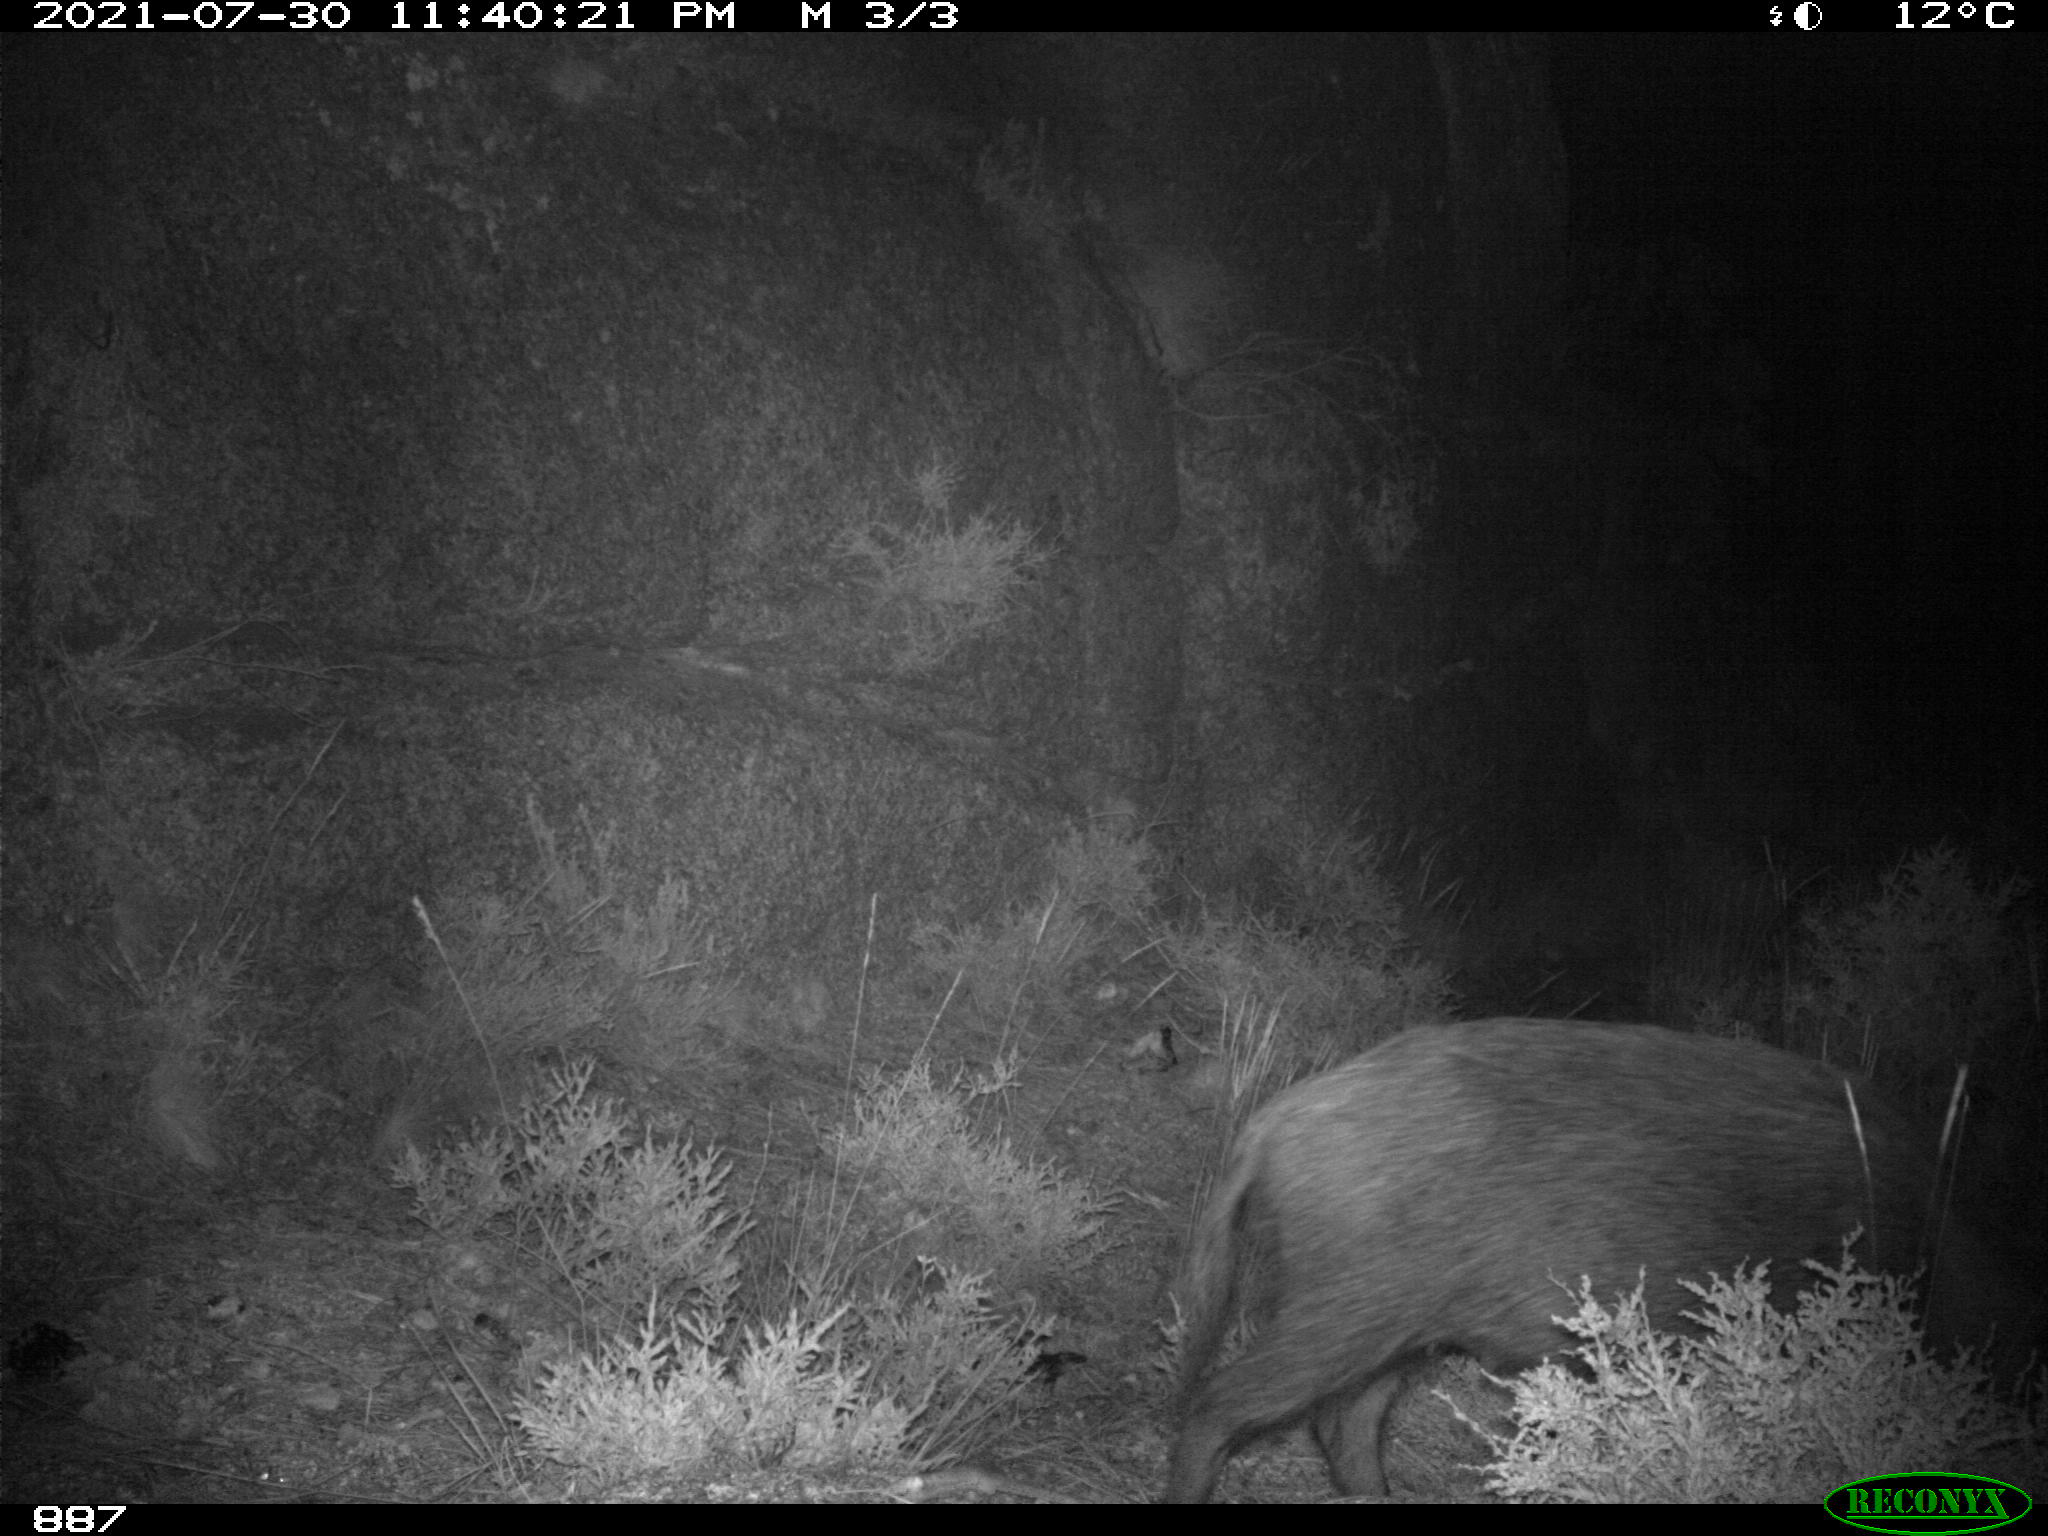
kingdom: Animalia
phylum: Chordata
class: Mammalia
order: Artiodactyla
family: Suidae
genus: Sus
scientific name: Sus scrofa
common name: Wild boar
